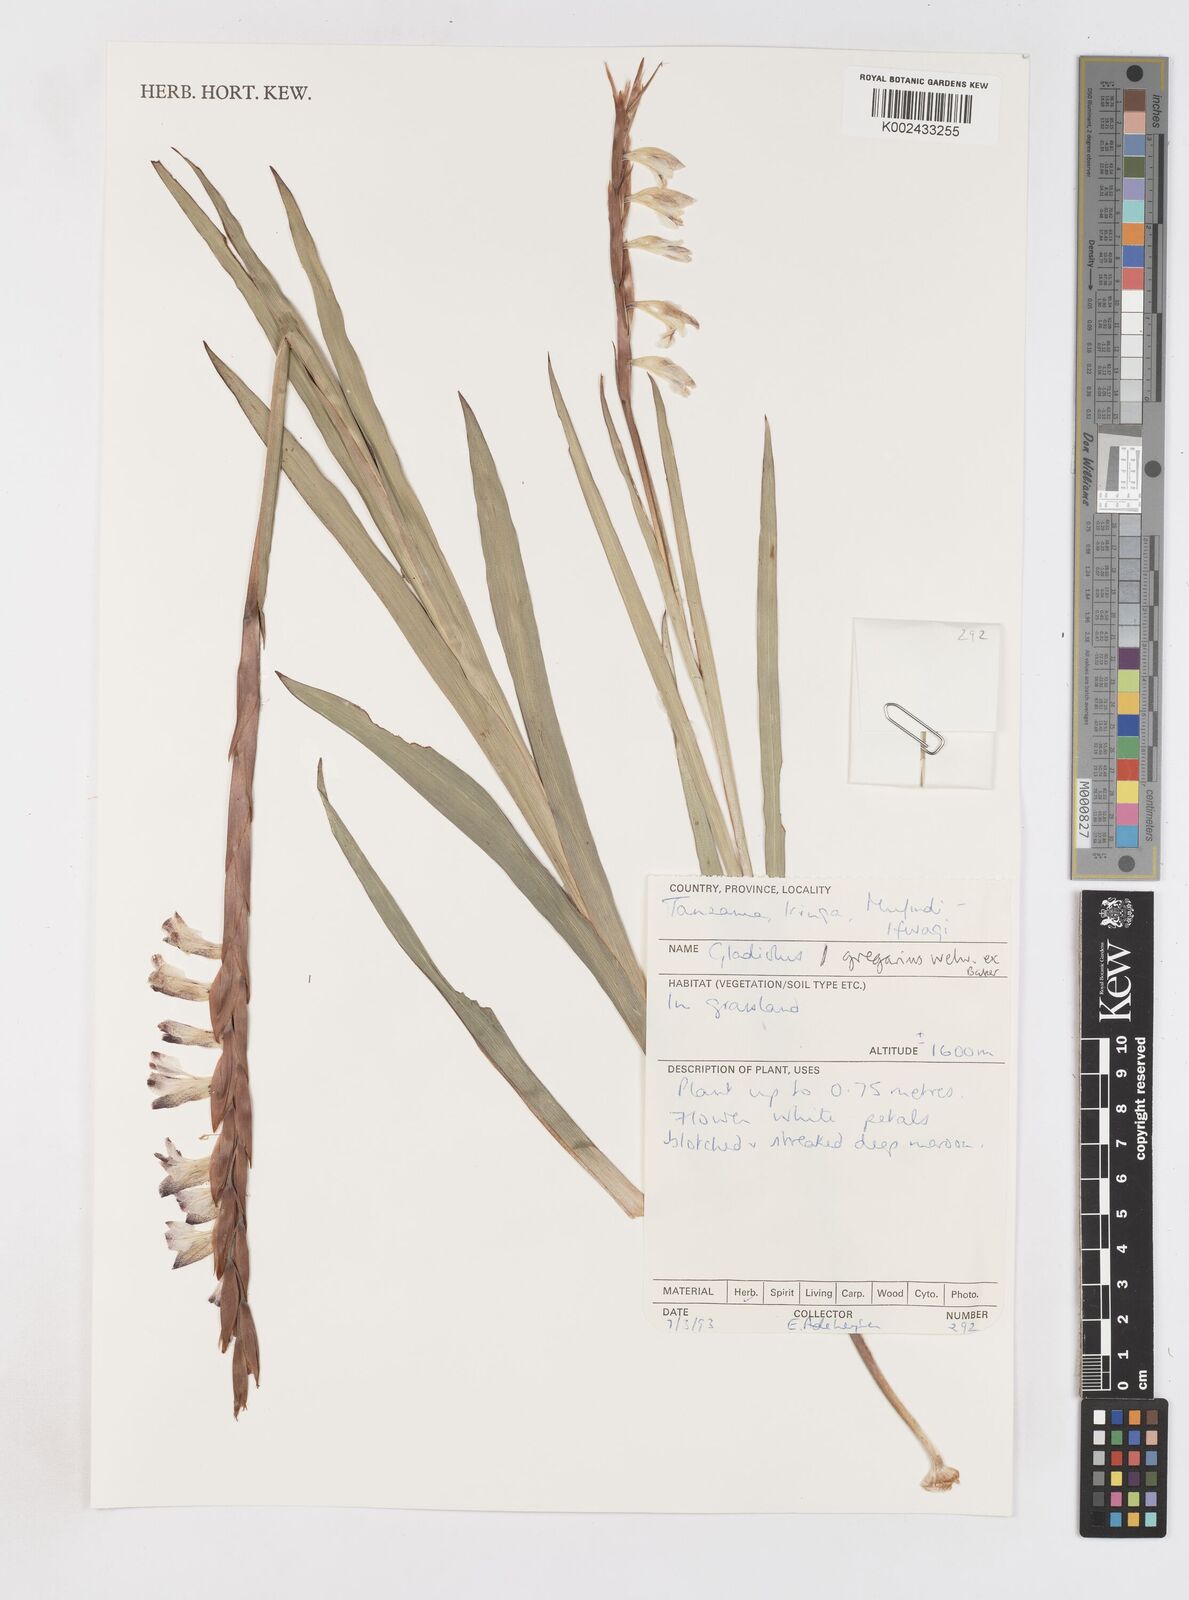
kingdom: Plantae
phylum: Tracheophyta
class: Liliopsida
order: Asparagales
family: Iridaceae
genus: Gladiolus
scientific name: Gladiolus gregarius
